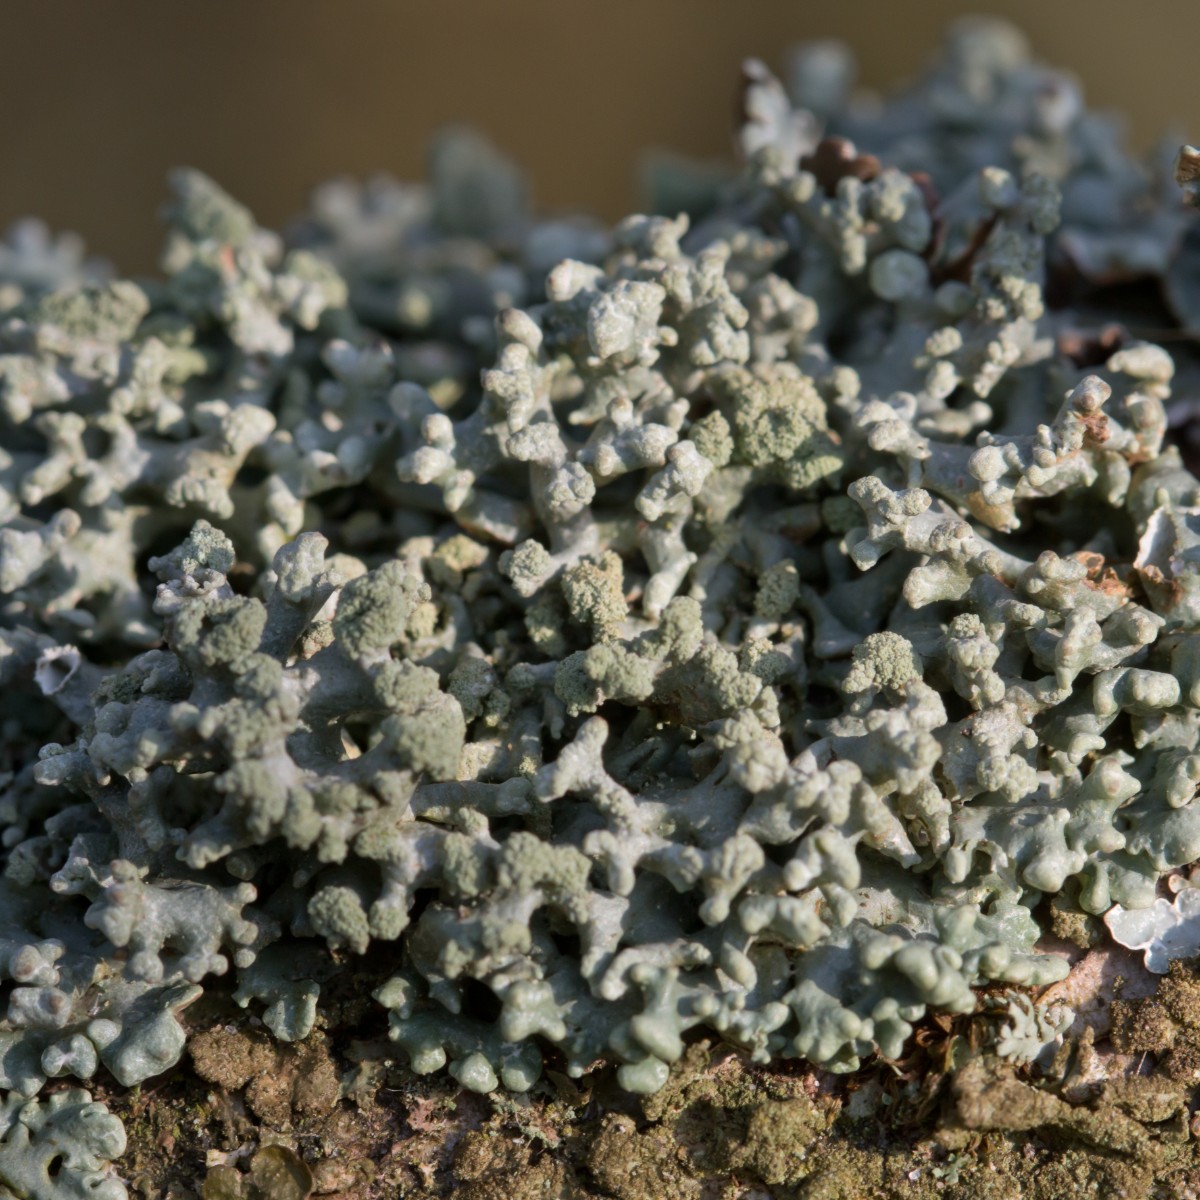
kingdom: Fungi
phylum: Ascomycota
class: Lecanoromycetes
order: Lecanorales
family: Parmeliaceae
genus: Hypogymnia
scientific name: Hypogymnia tubulosa
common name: finger-kvistlav
